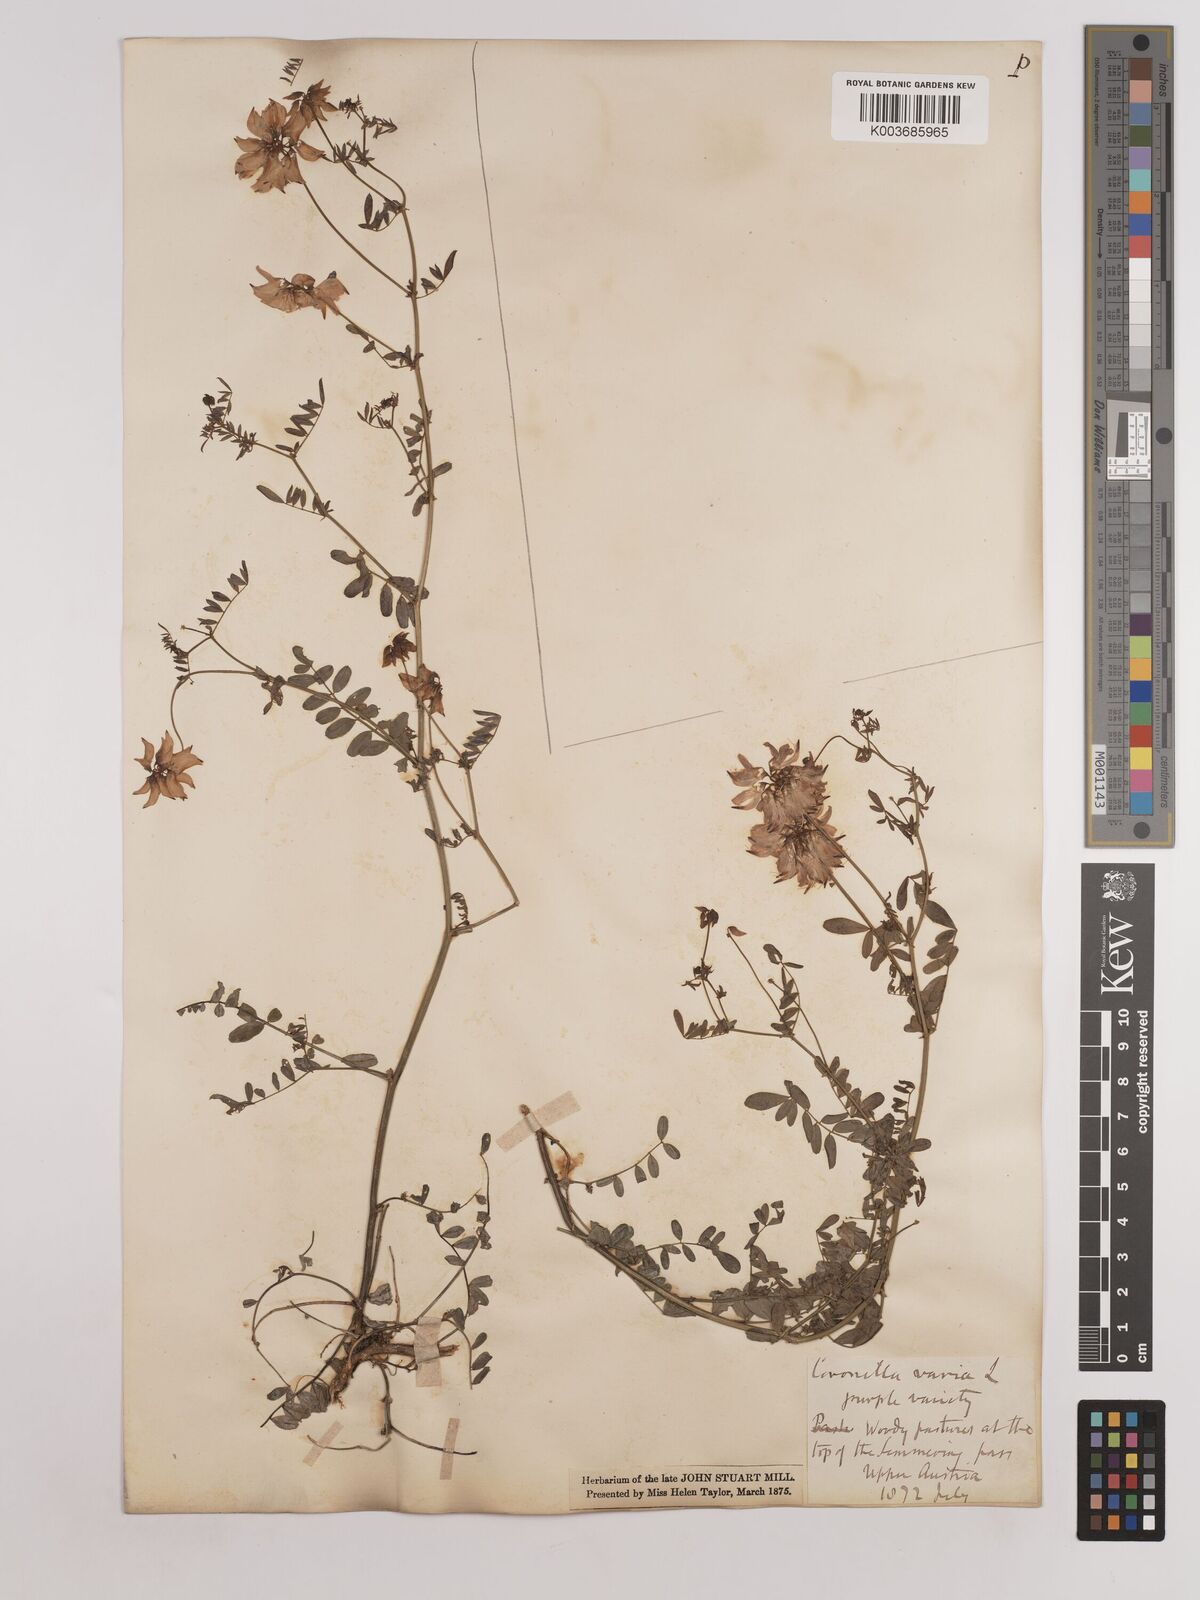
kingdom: Plantae
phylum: Tracheophyta
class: Magnoliopsida
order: Fabales
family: Fabaceae
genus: Coronilla
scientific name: Coronilla varia
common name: Crownvetch
